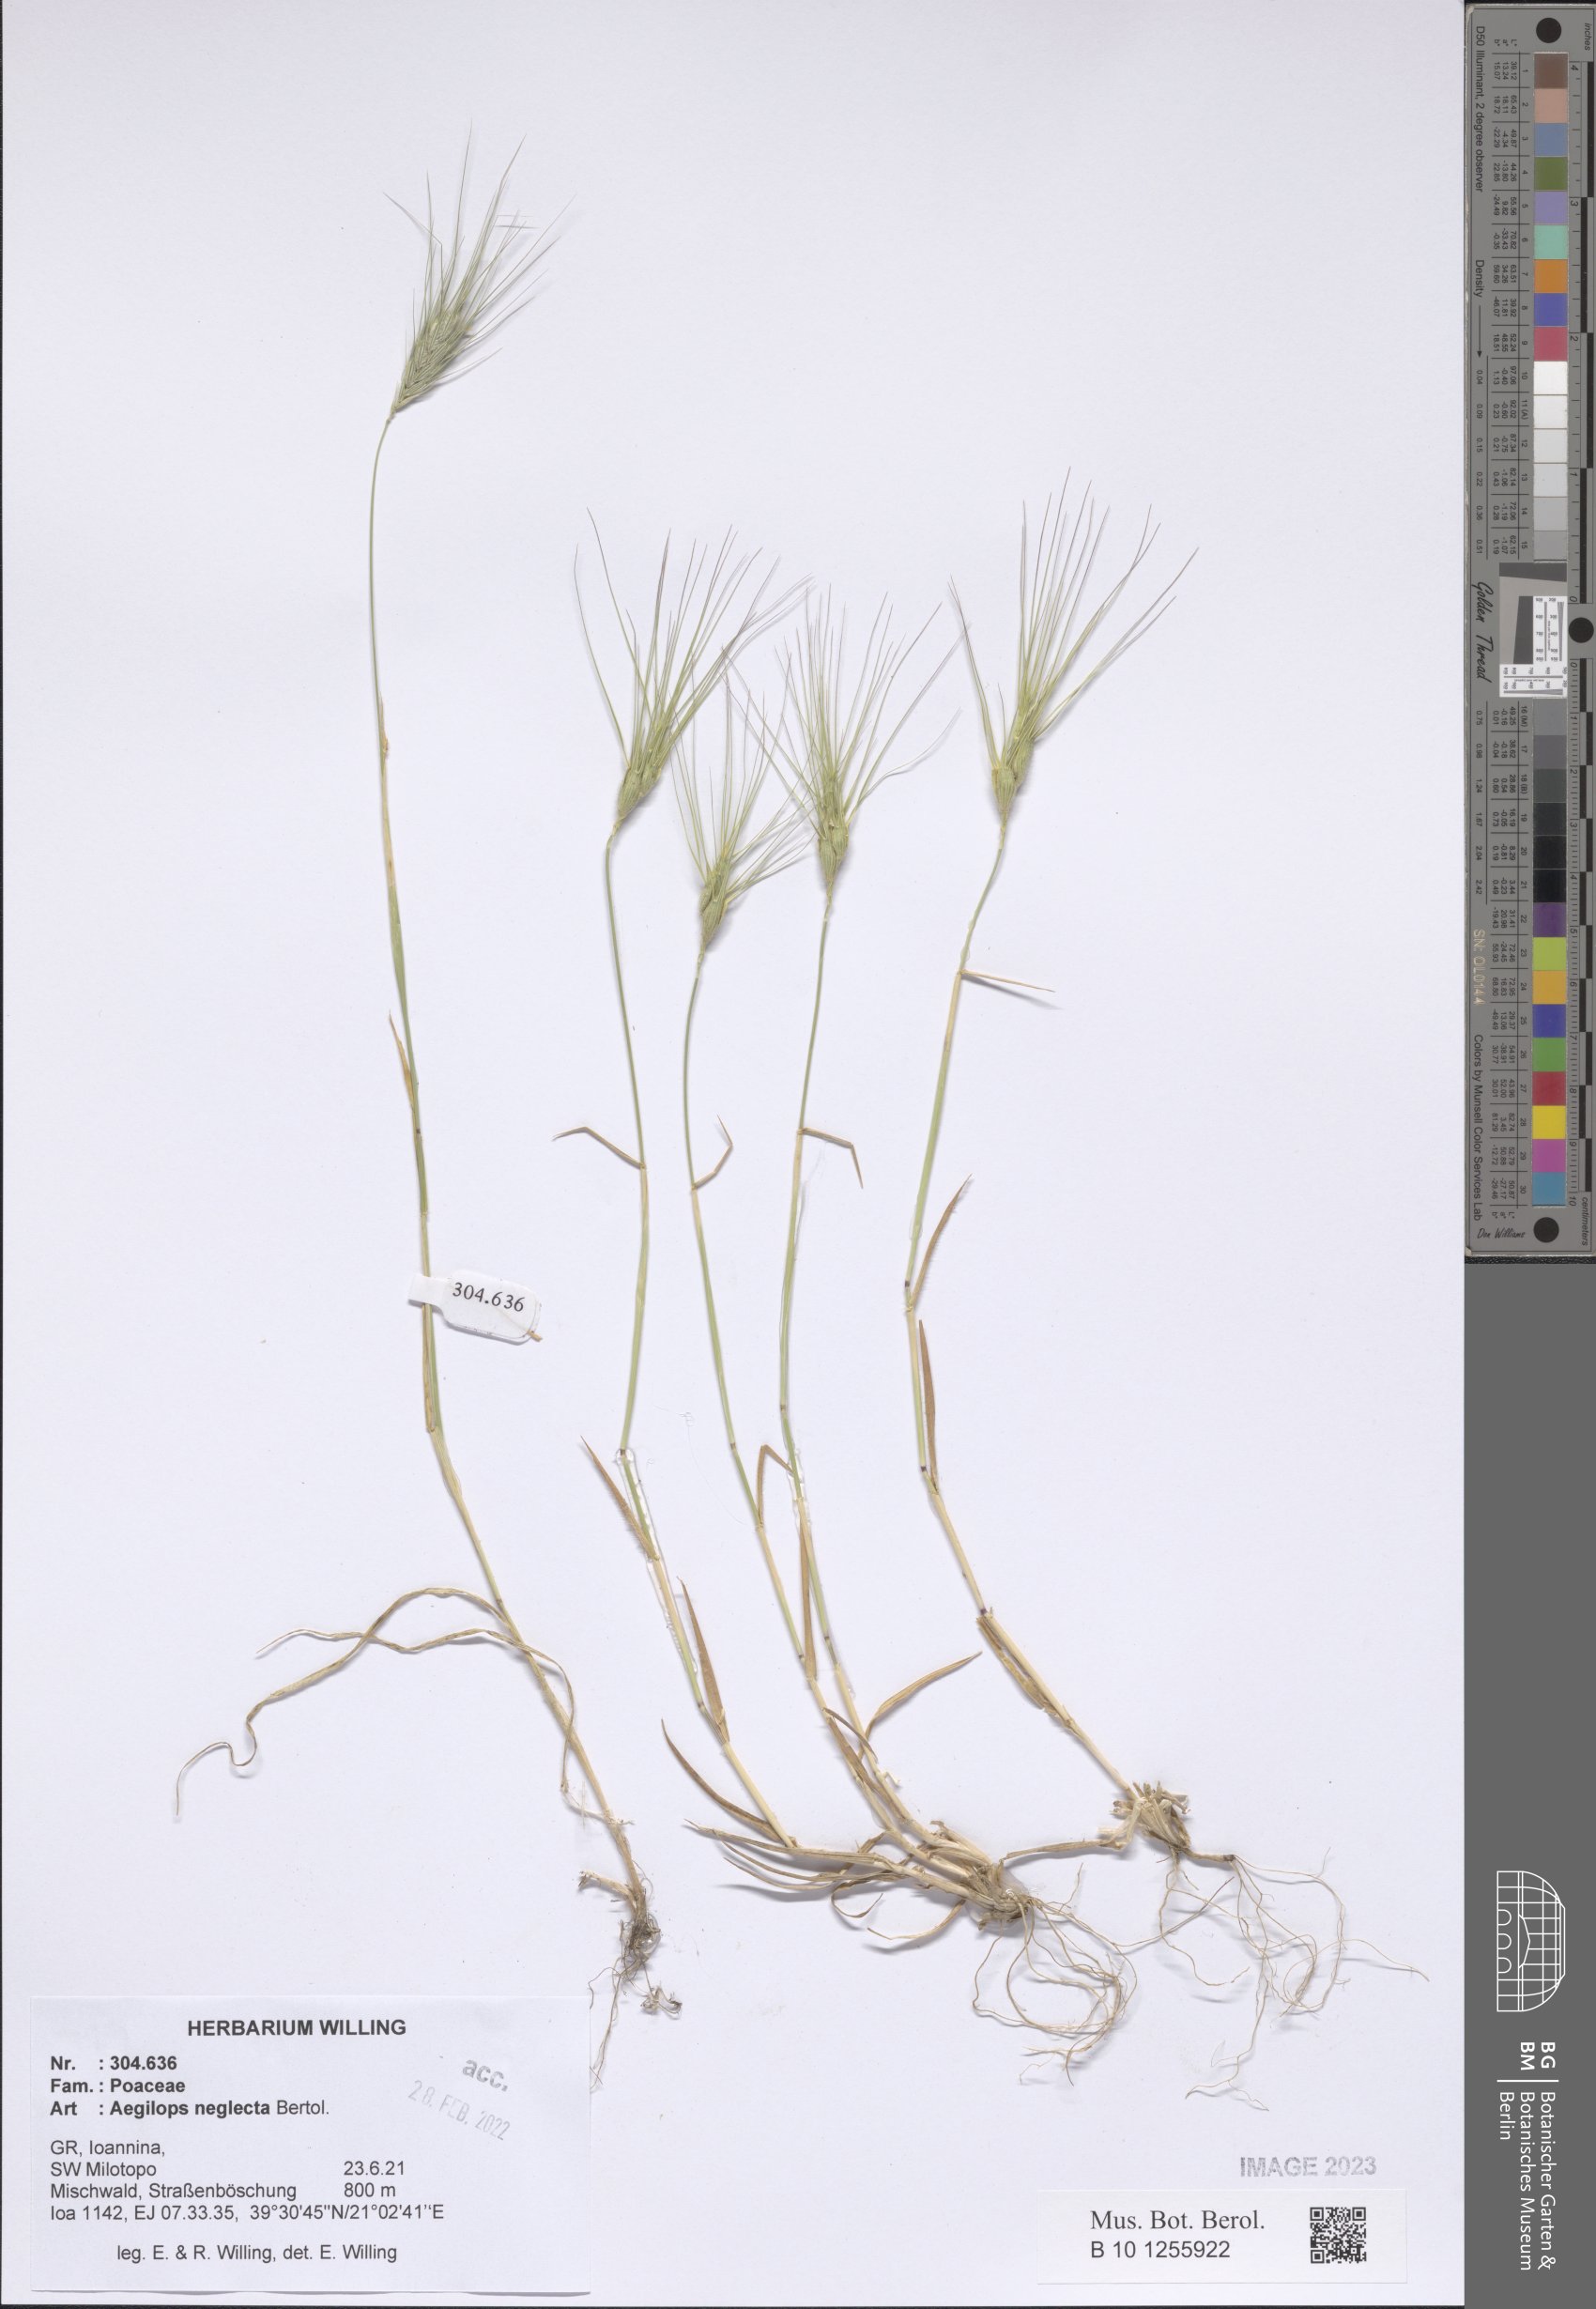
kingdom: Plantae
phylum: Tracheophyta
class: Liliopsida
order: Poales
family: Poaceae
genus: Aegilops
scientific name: Aegilops neglecta
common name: Three-awn goat grass
